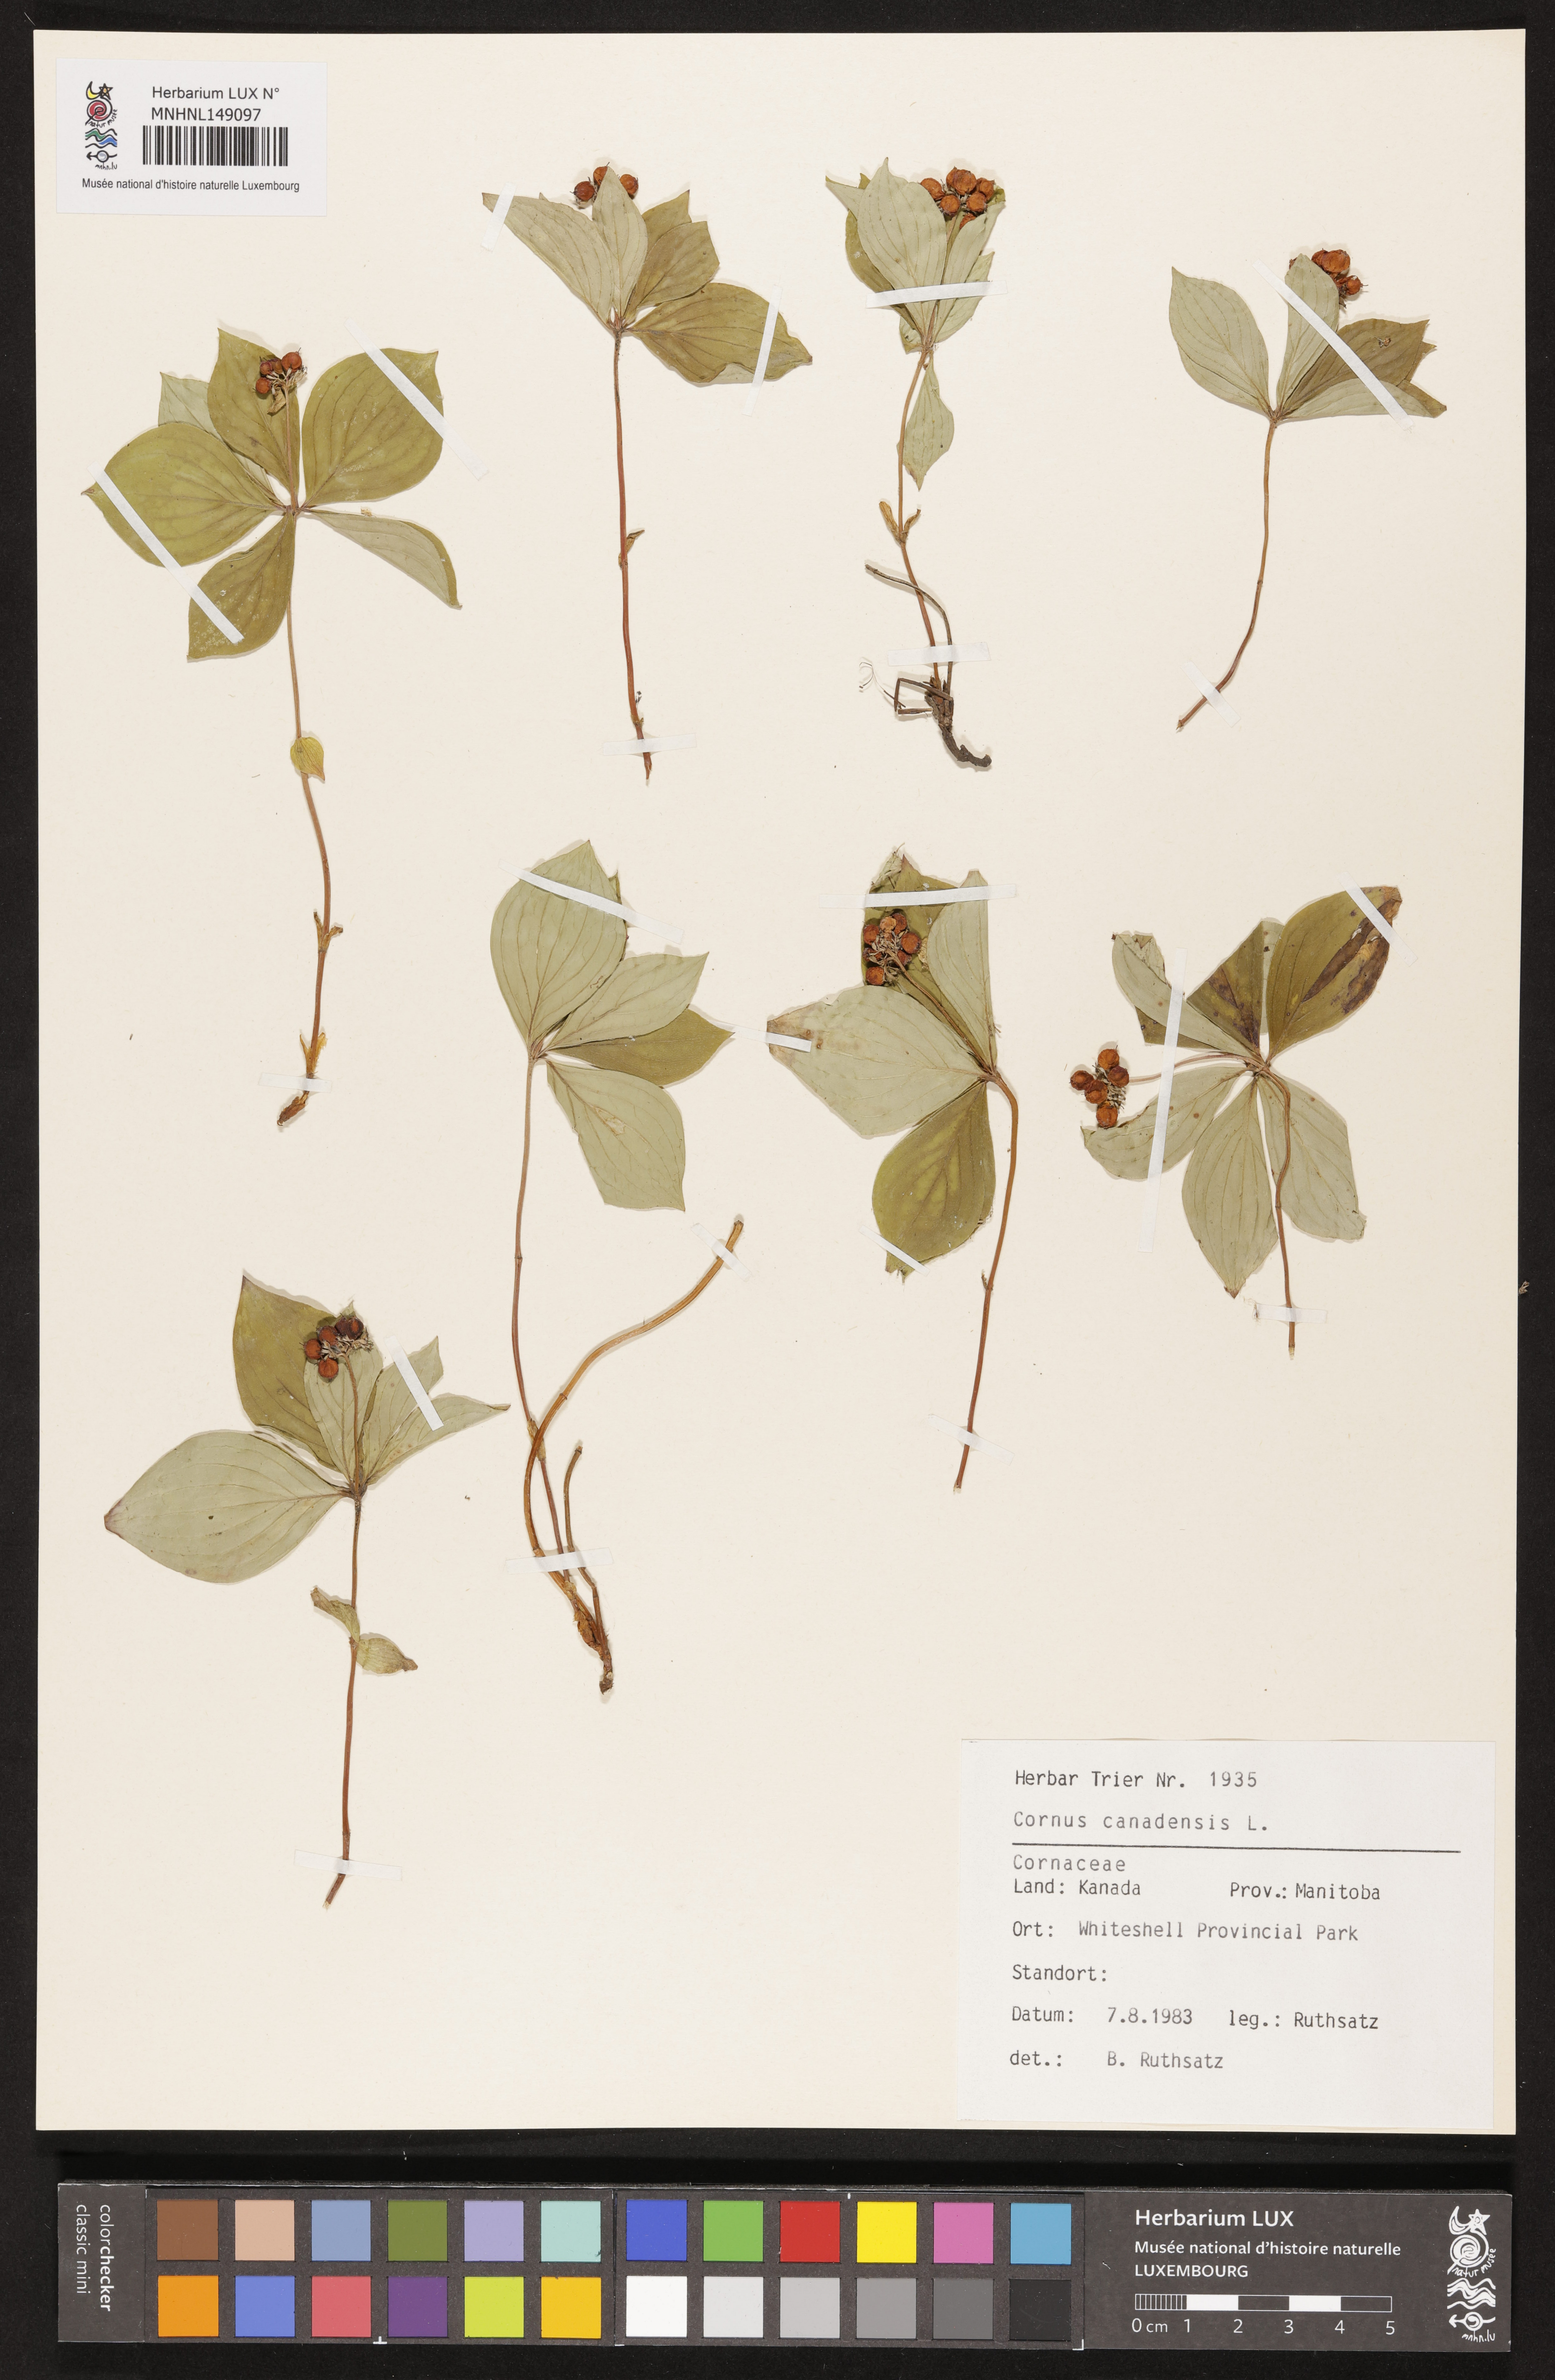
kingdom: Plantae
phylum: Tracheophyta
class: Magnoliopsida
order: Cornales
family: Cornaceae
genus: Cornus
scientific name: Cornus canadensis
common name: Creeping dogwood
